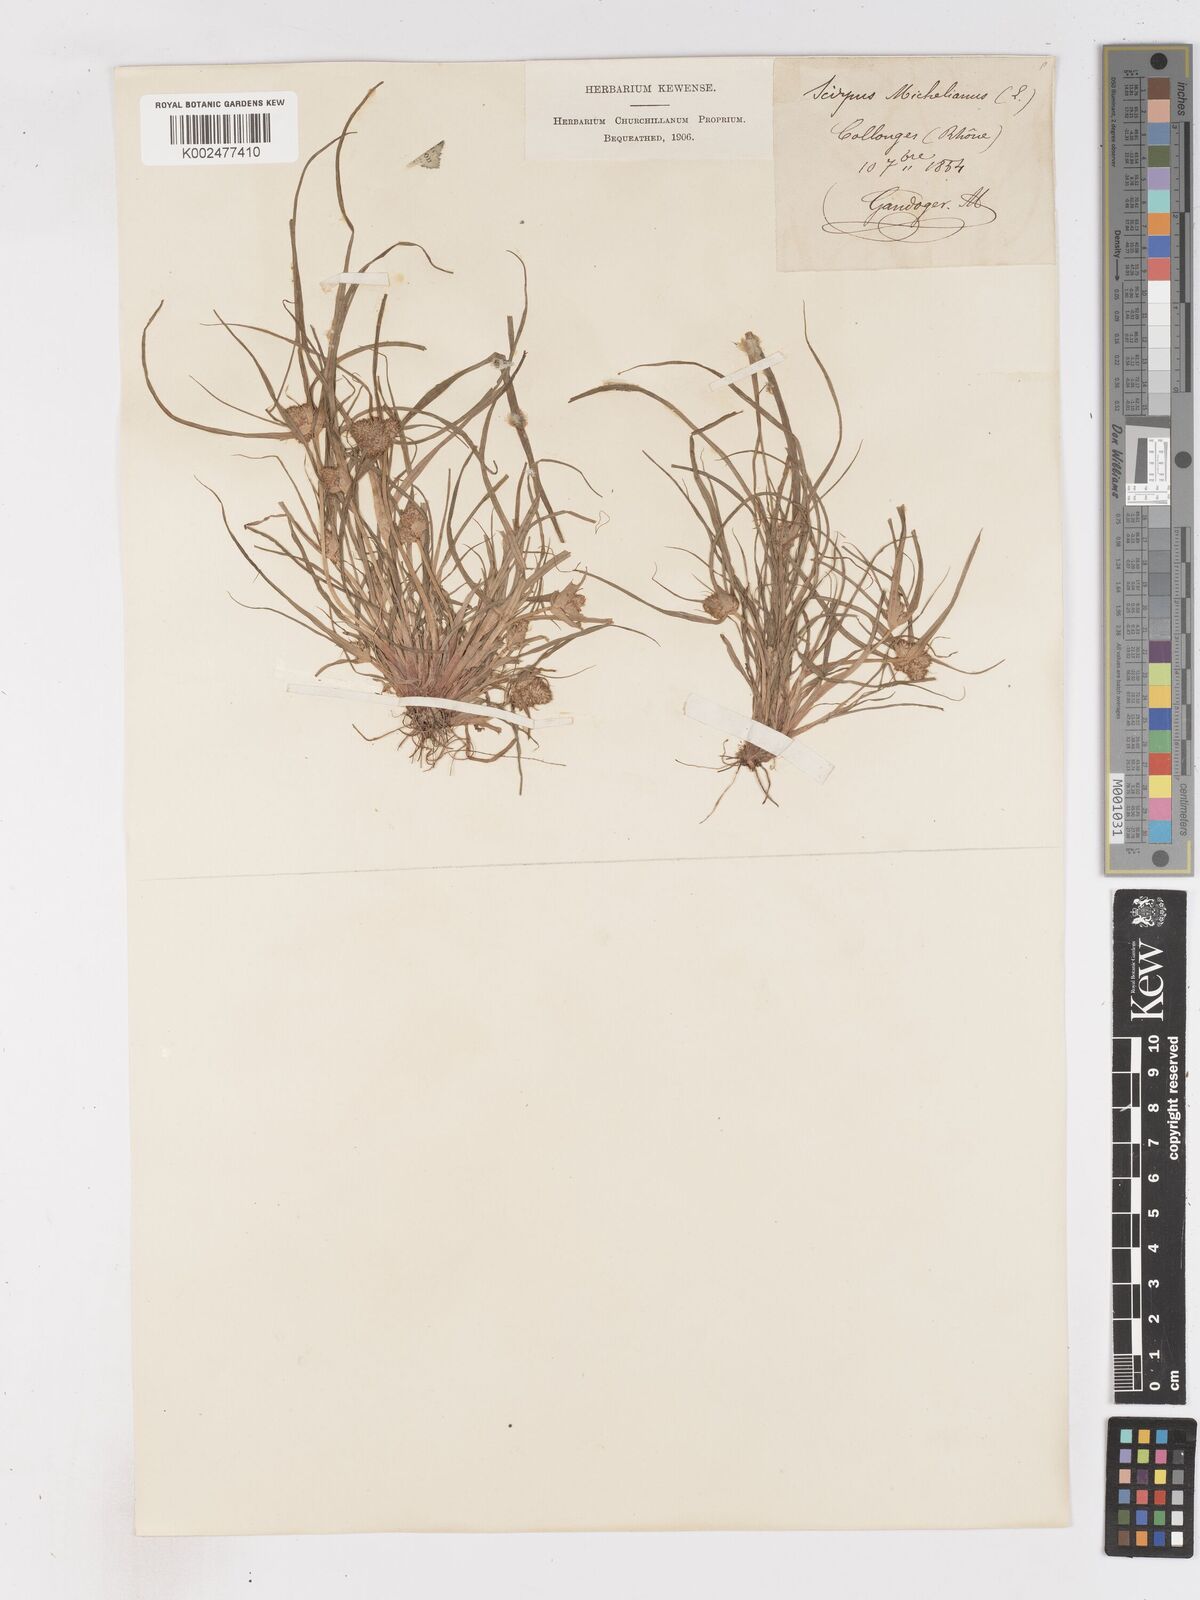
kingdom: Plantae
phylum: Tracheophyta
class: Liliopsida
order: Poales
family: Cyperaceae
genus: Cyperus
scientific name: Cyperus michelianus
